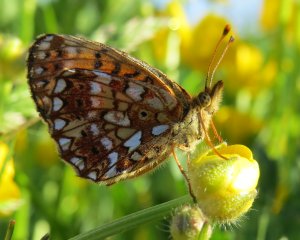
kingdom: Animalia
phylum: Arthropoda
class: Insecta
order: Lepidoptera
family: Nymphalidae
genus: Boloria
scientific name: Boloria selene
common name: Silver-bordered Fritillary
